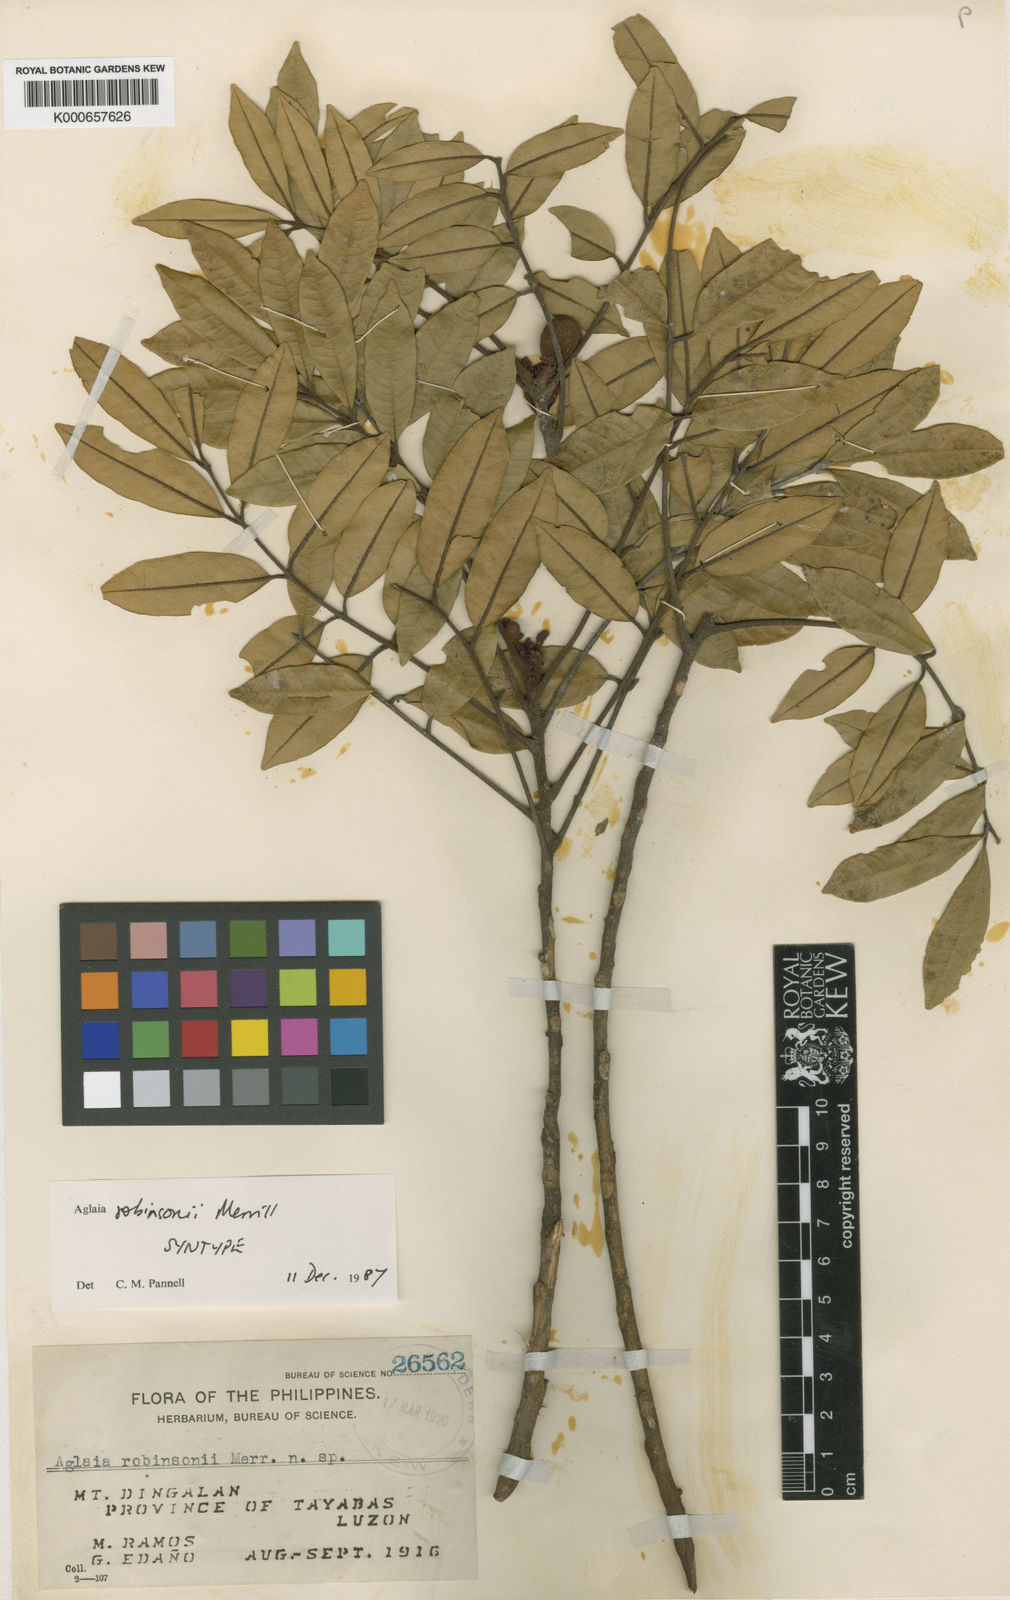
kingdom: Plantae
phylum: Tracheophyta
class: Magnoliopsida
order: Sapindales
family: Meliaceae
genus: Aglaia
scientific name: Aglaia elliptica
